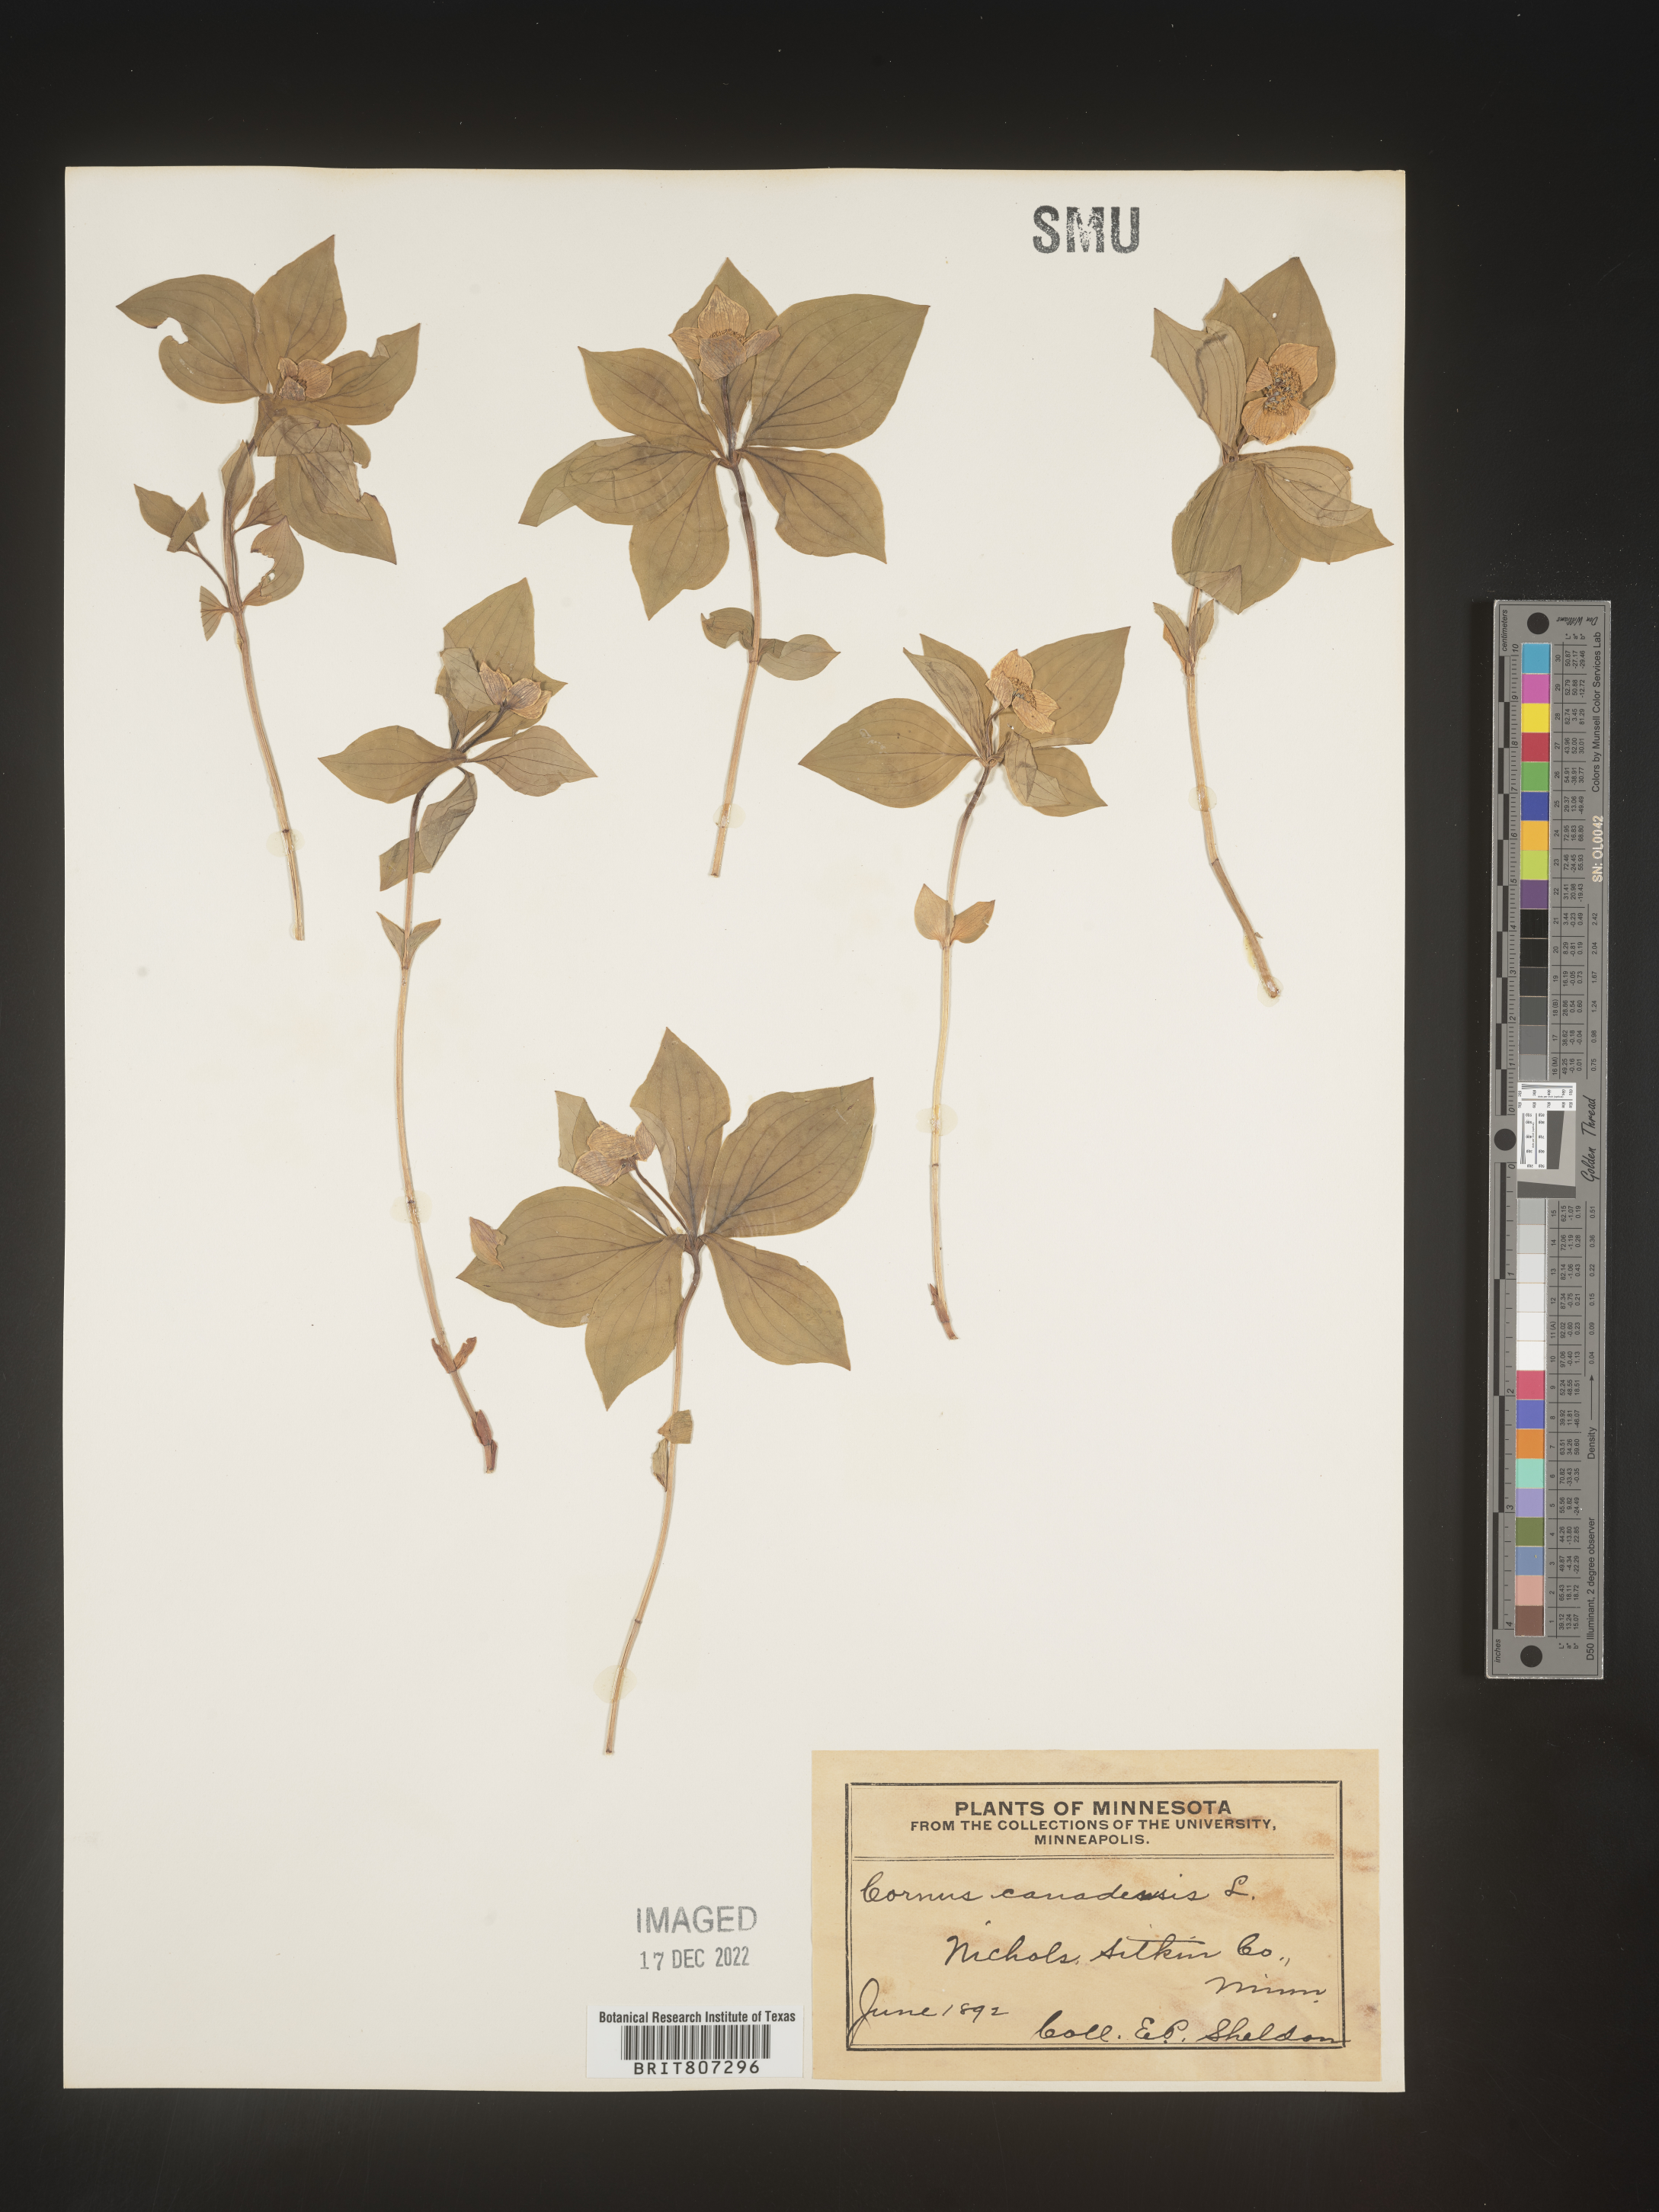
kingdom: Plantae
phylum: Tracheophyta
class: Magnoliopsida
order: Cornales
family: Cornaceae
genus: Cornus
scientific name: Cornus canadensis
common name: Creeping dogwood
